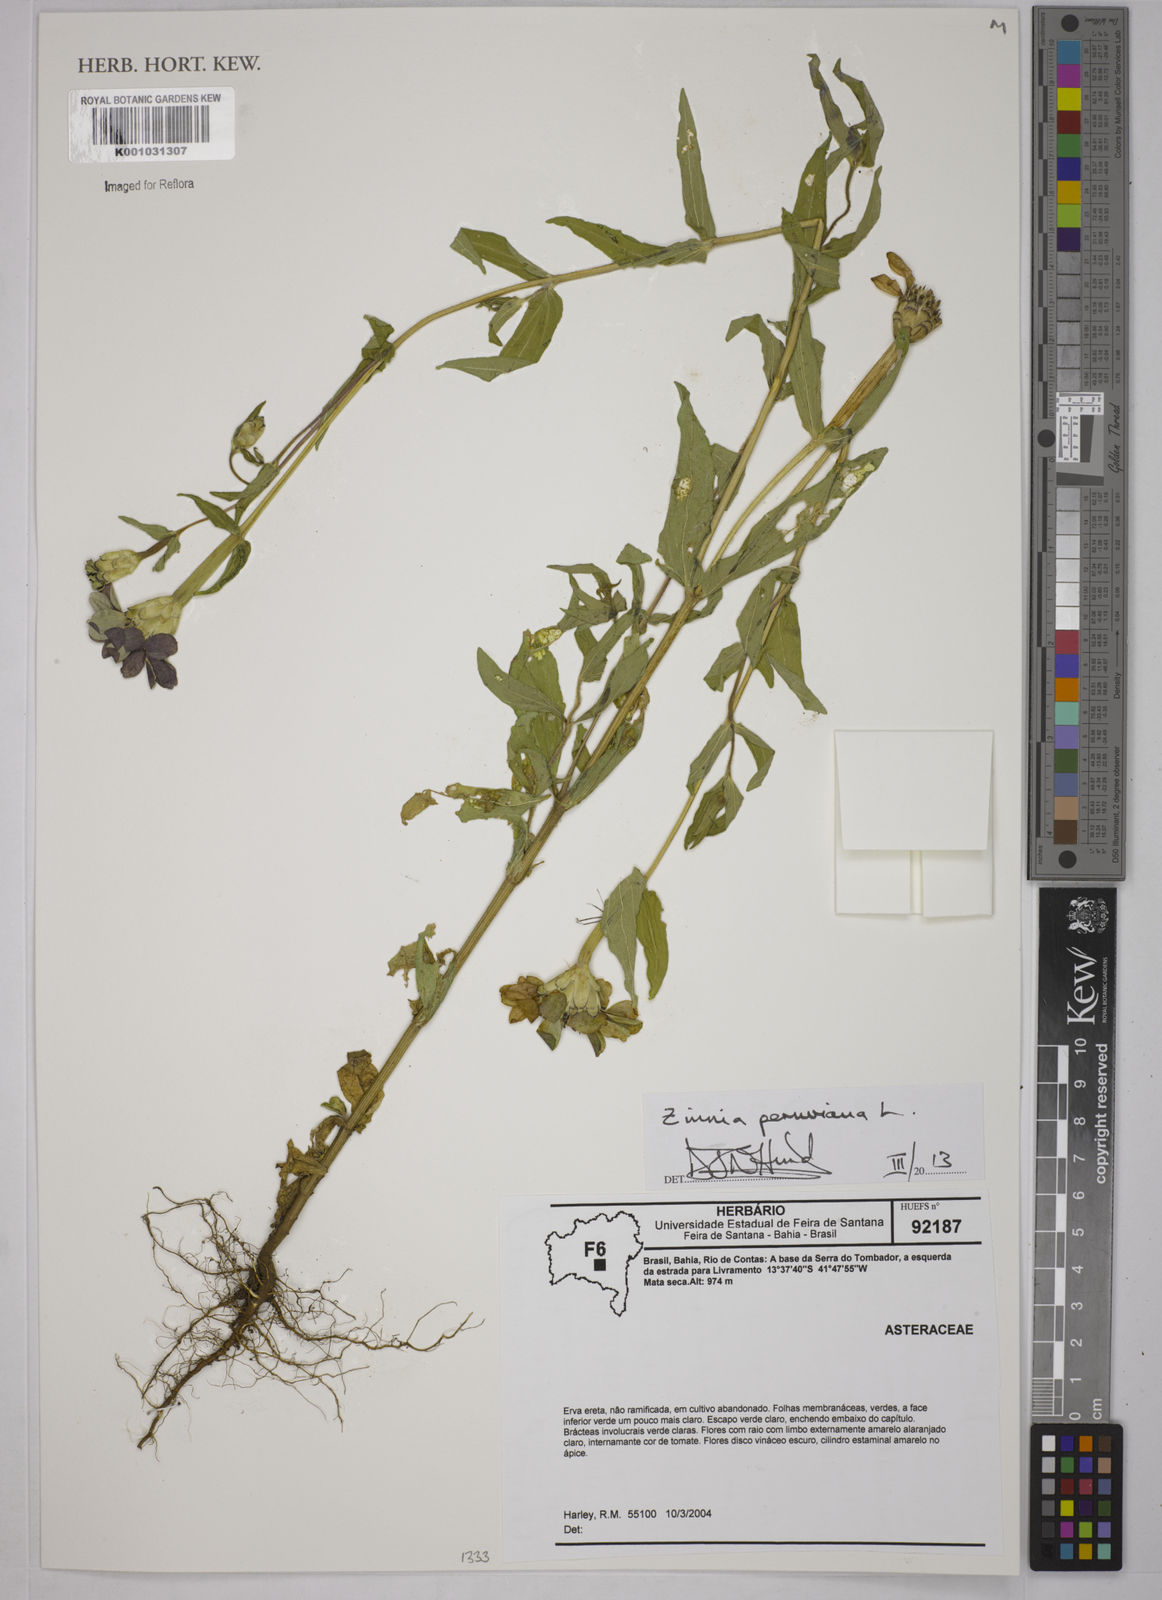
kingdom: Plantae
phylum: Tracheophyta
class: Magnoliopsida
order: Asterales
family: Asteraceae
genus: Zinnia
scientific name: Zinnia peruviana
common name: Peruvian zinnia
